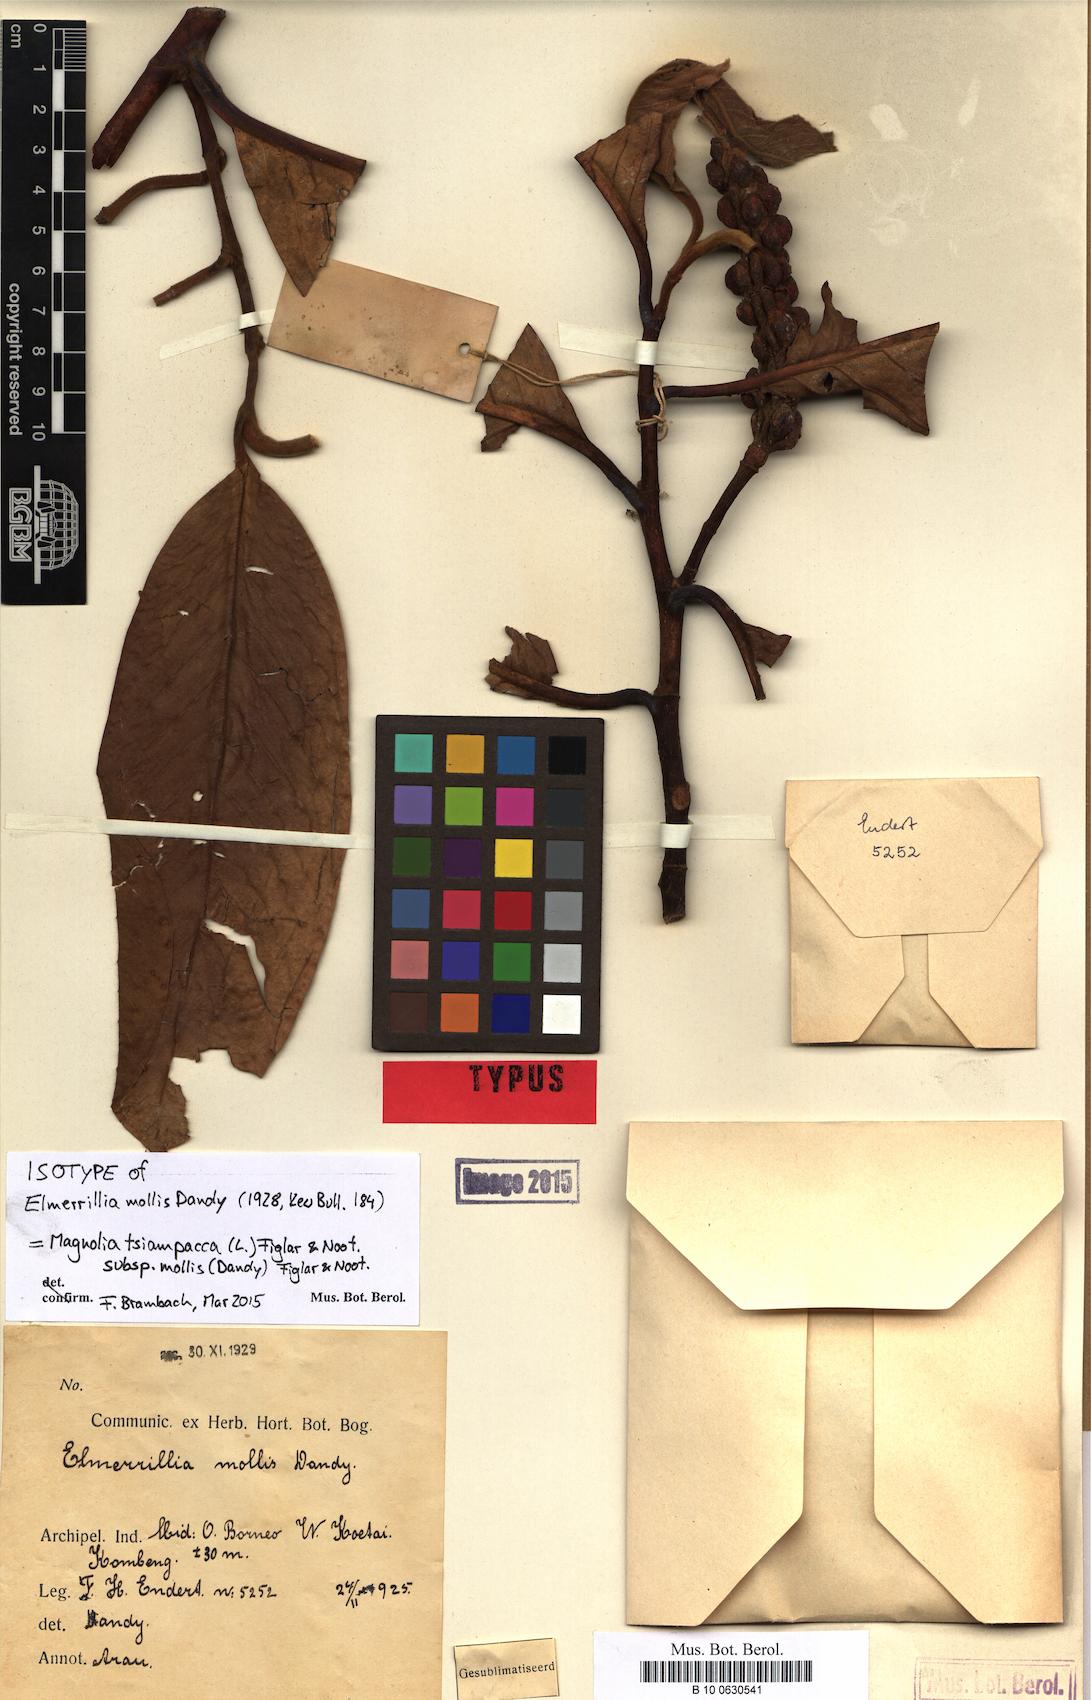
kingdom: Plantae
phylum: Tracheophyta
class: Magnoliopsida
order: Magnoliales
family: Magnoliaceae
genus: Magnolia
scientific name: Magnolia tsiampacca
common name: Wau-beech
